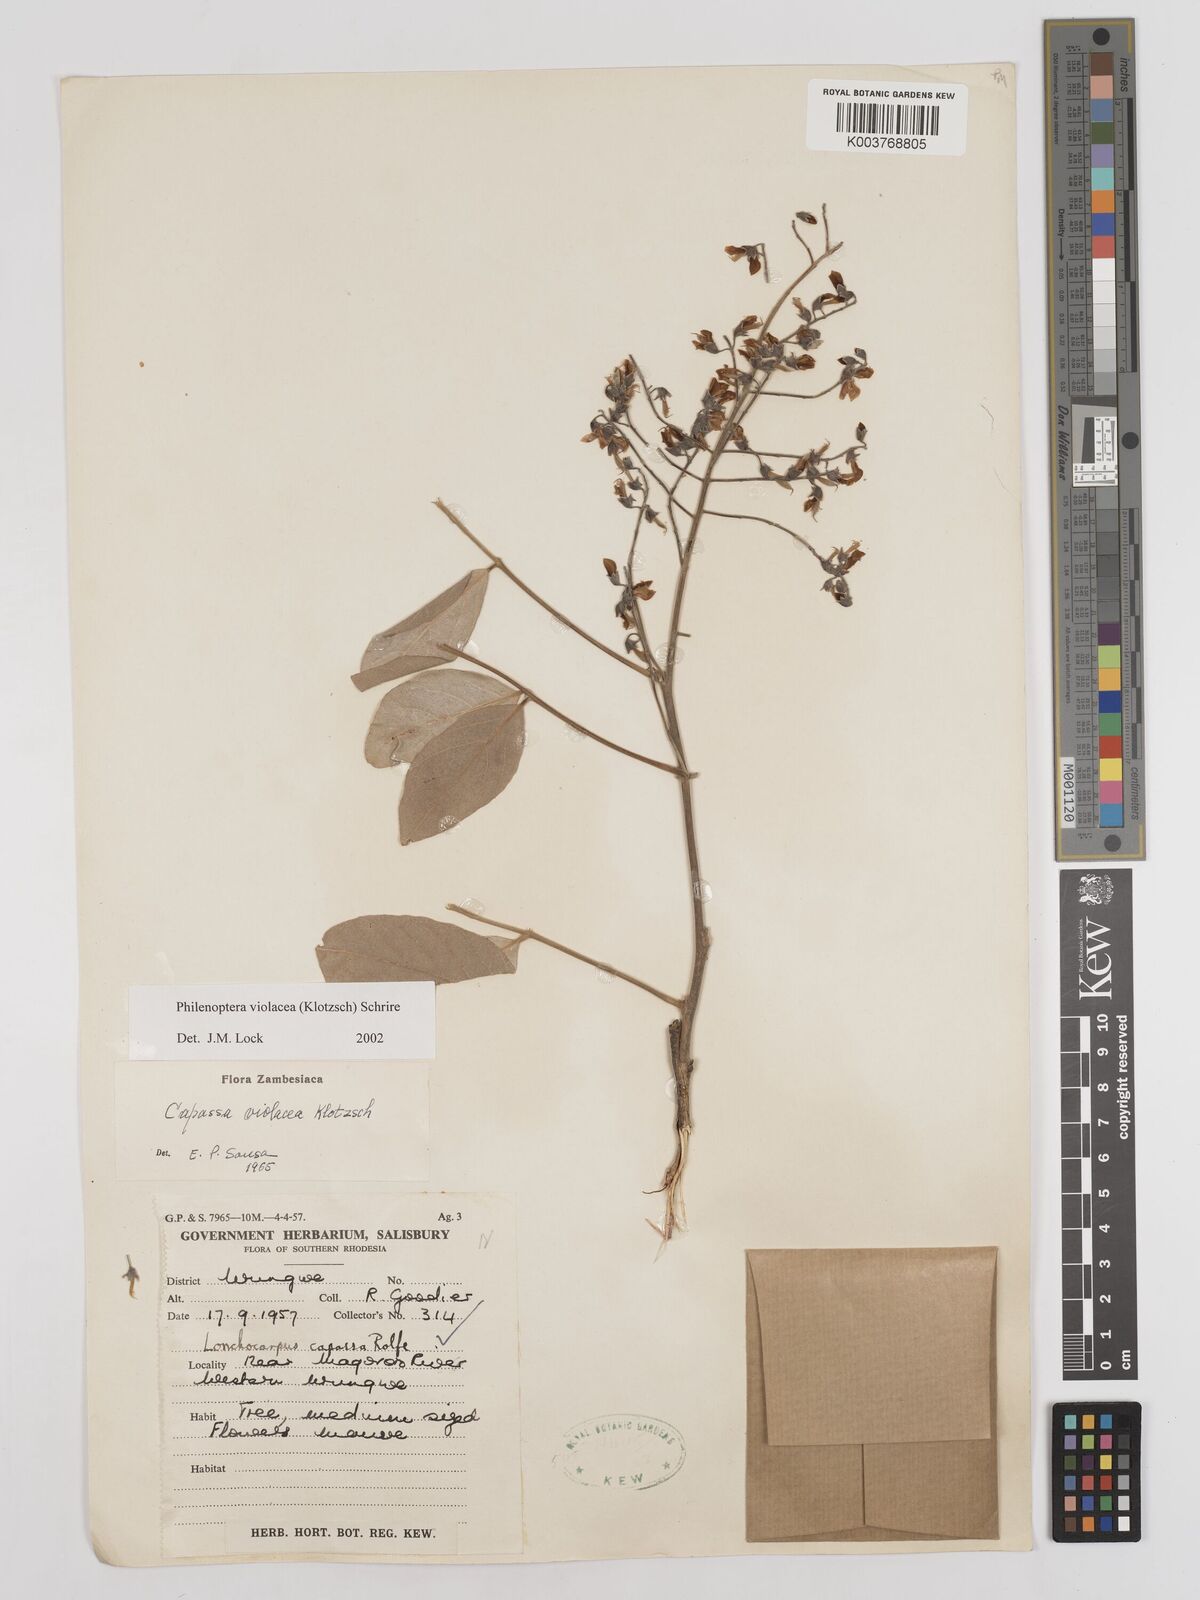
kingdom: Plantae
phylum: Tracheophyta
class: Magnoliopsida
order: Fabales
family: Fabaceae
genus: Philenoptera
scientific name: Philenoptera violacea
